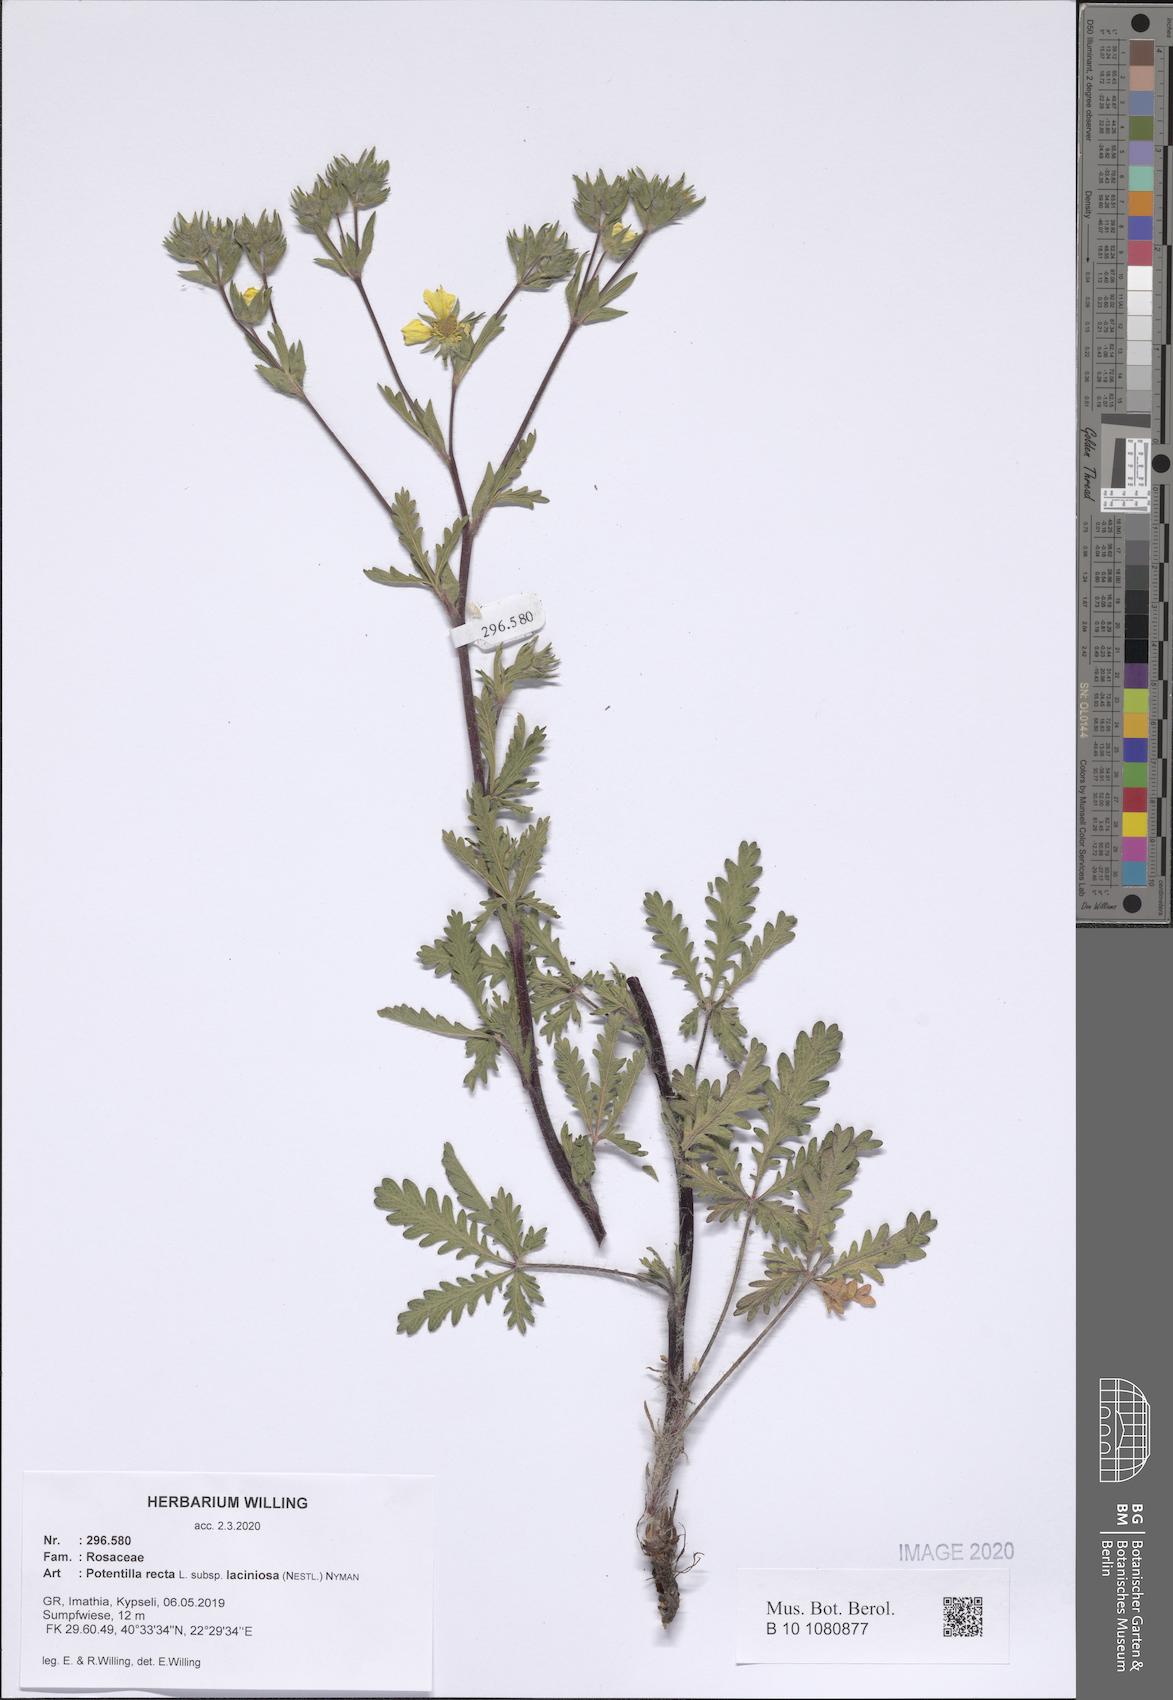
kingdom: Plantae
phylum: Tracheophyta
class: Magnoliopsida
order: Rosales
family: Rosaceae
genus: Potentilla
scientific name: Potentilla recta
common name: Sulphur cinquefoil
